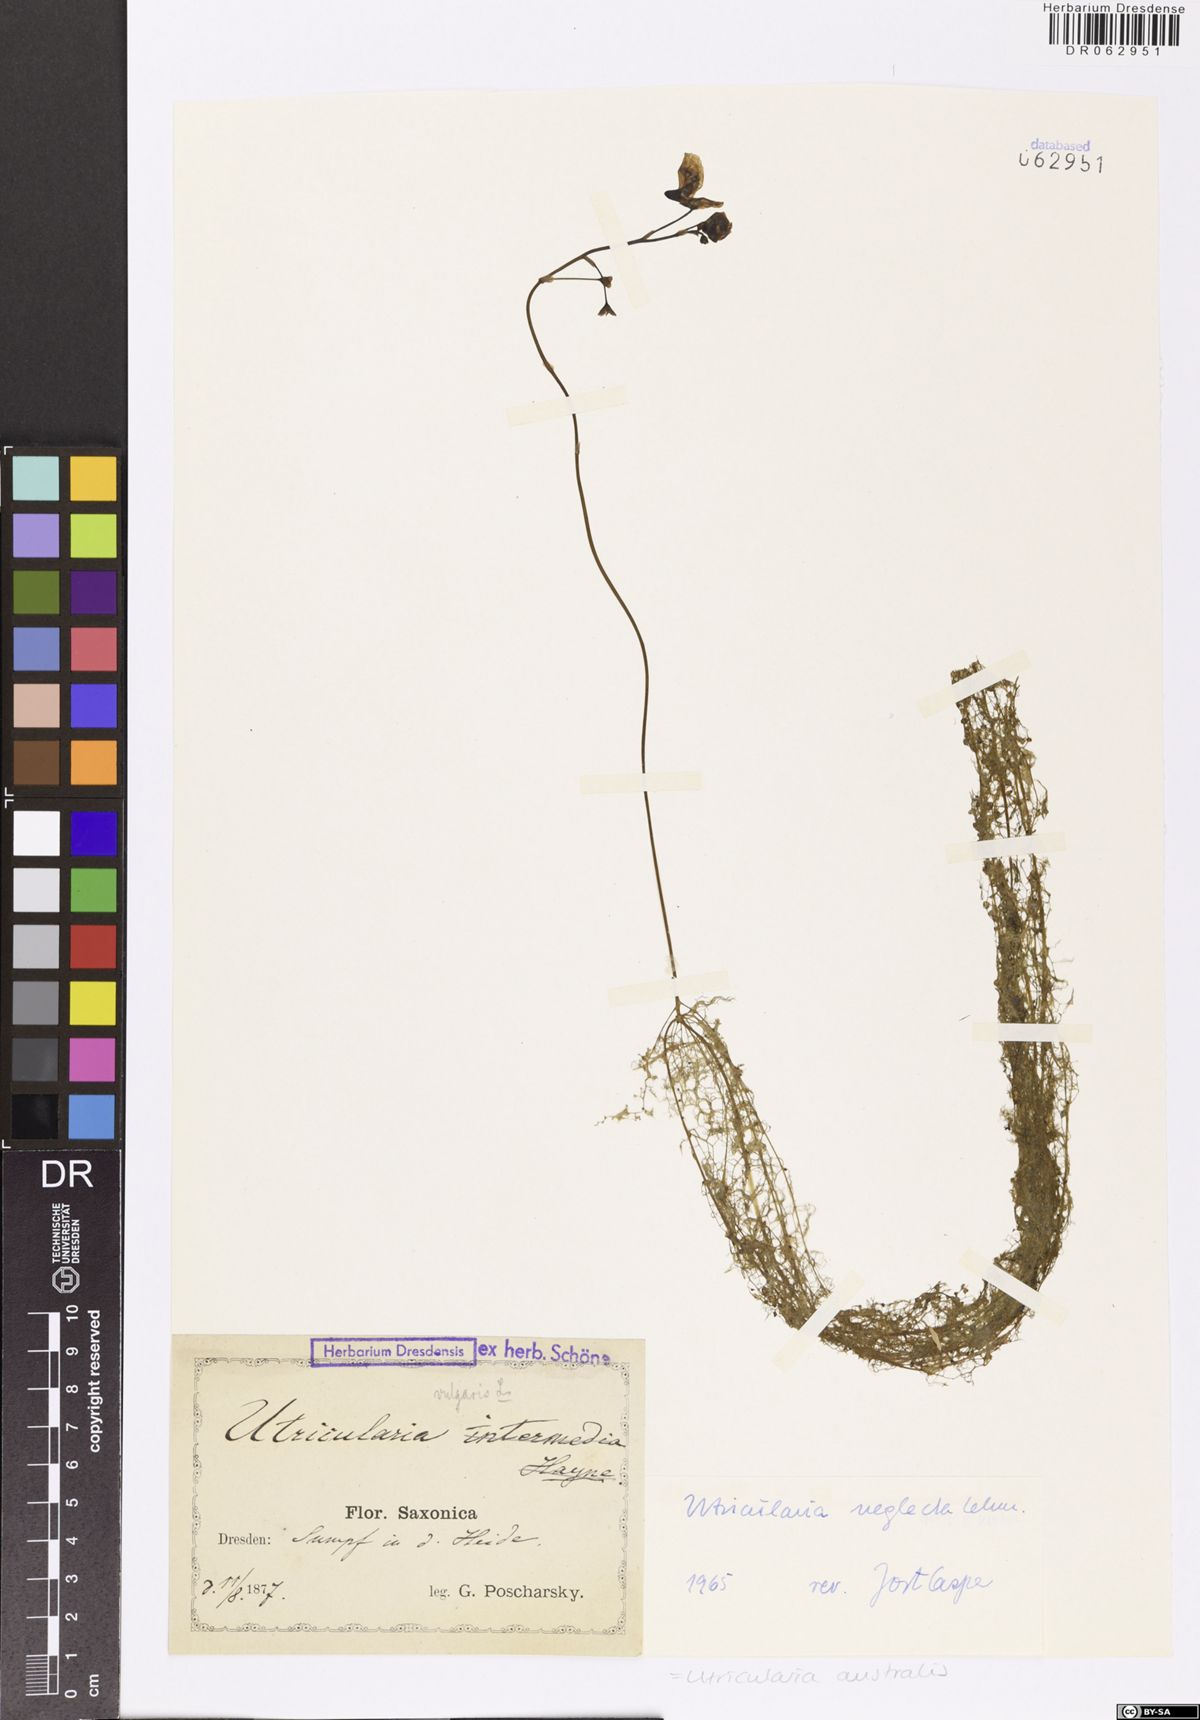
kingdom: Plantae
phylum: Tracheophyta
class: Magnoliopsida
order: Lamiales
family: Lentibulariaceae
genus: Utricularia
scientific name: Utricularia australis
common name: Bladderwort
